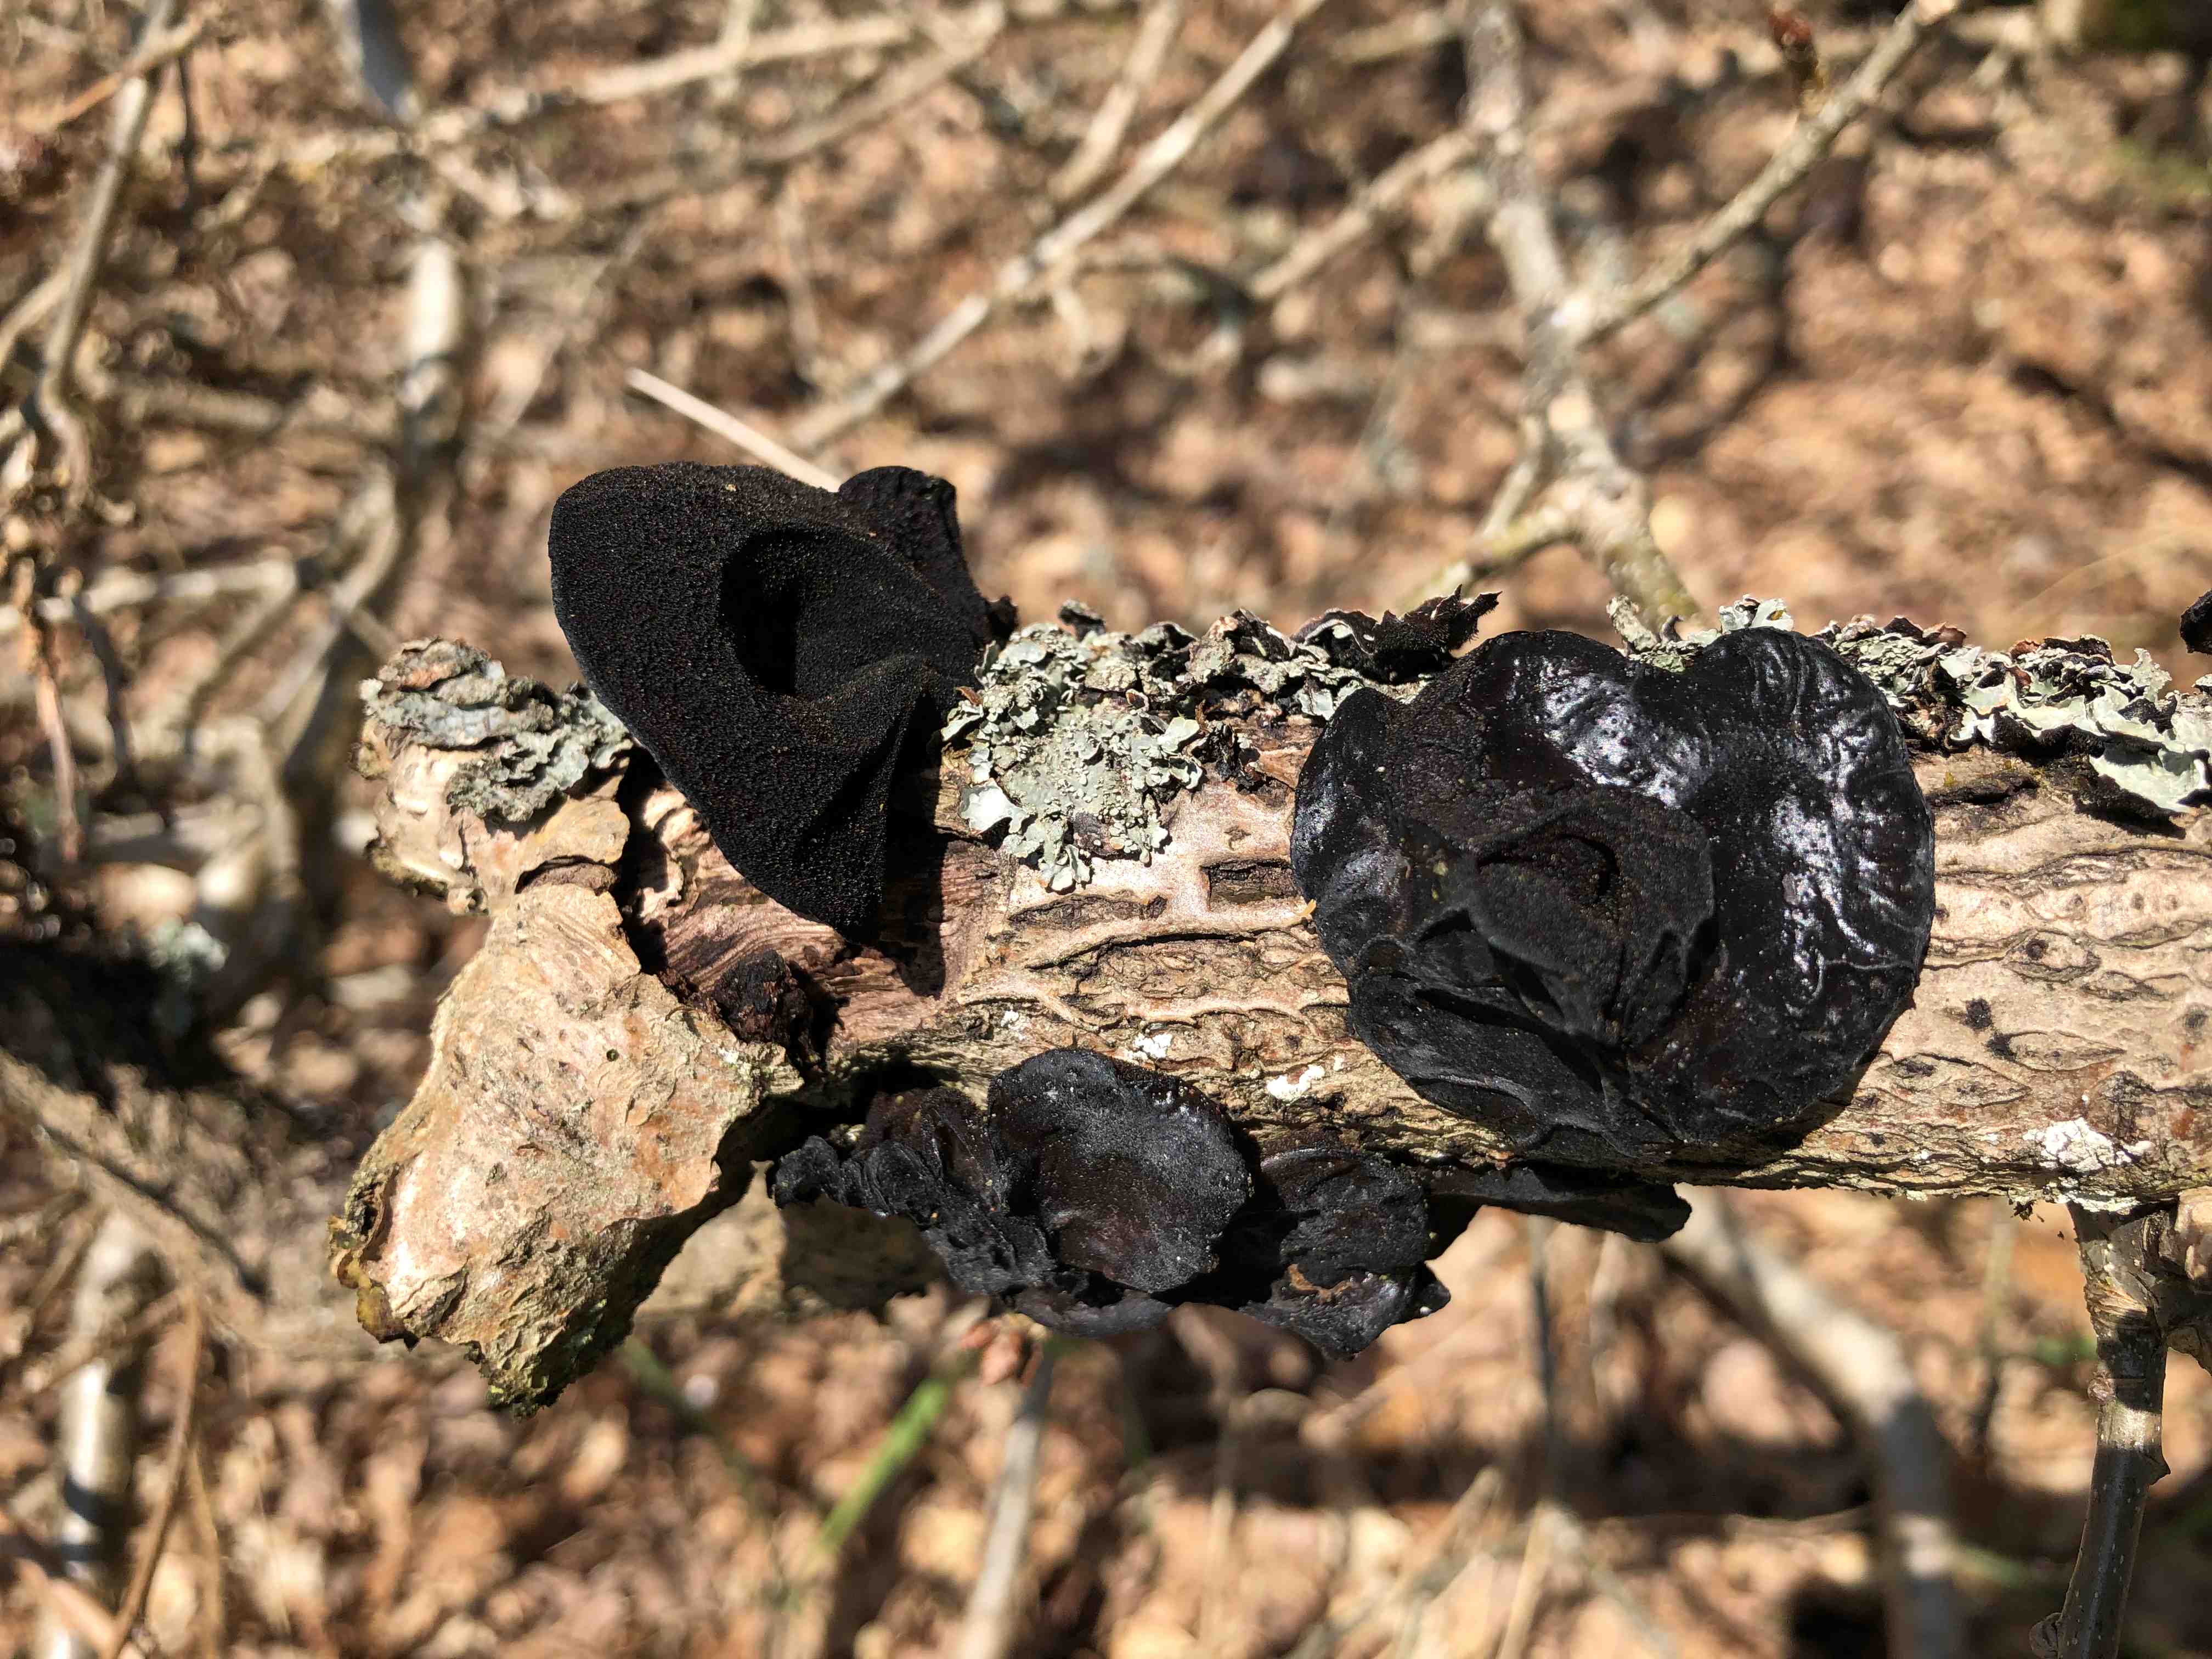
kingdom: Fungi
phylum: Basidiomycota
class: Agaricomycetes
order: Auriculariales
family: Auriculariaceae
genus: Exidia
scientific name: Exidia glandulosa
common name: ege-bævretop
